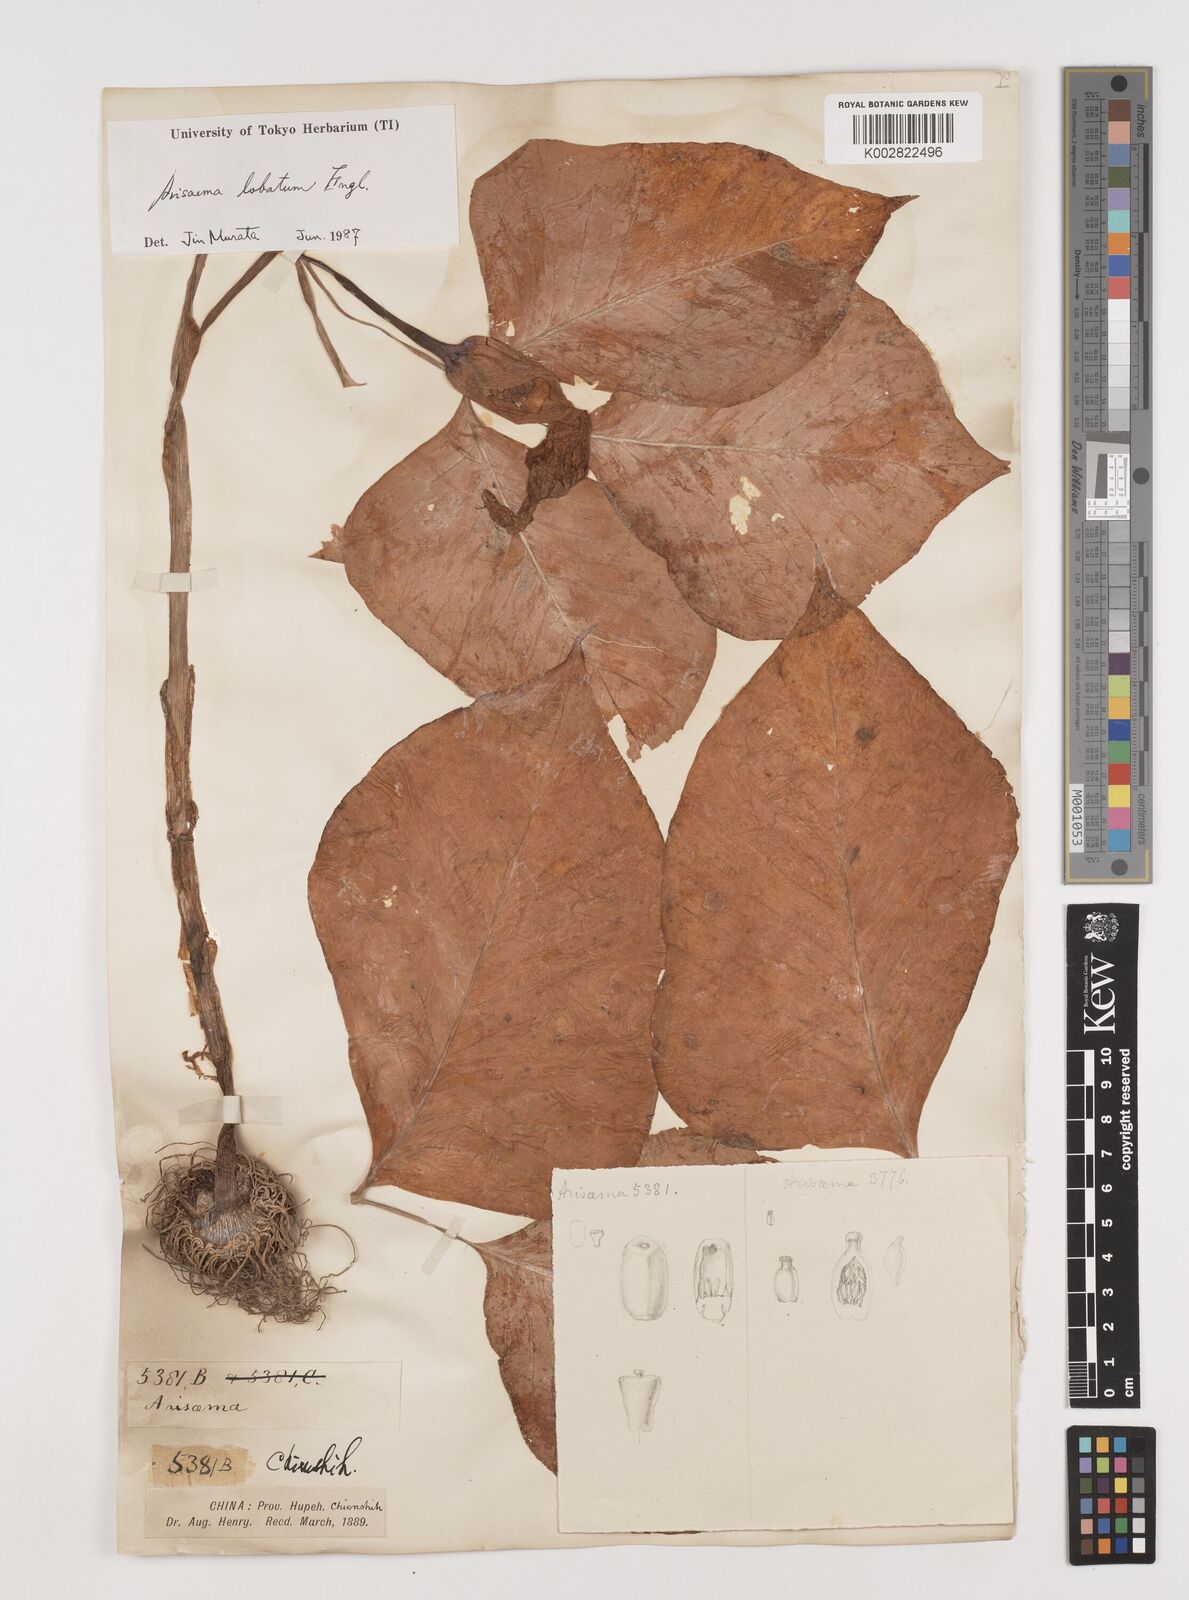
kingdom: Plantae
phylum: Tracheophyta
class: Liliopsida
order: Alismatales
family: Araceae
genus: Arisaema
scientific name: Arisaema lobatum
